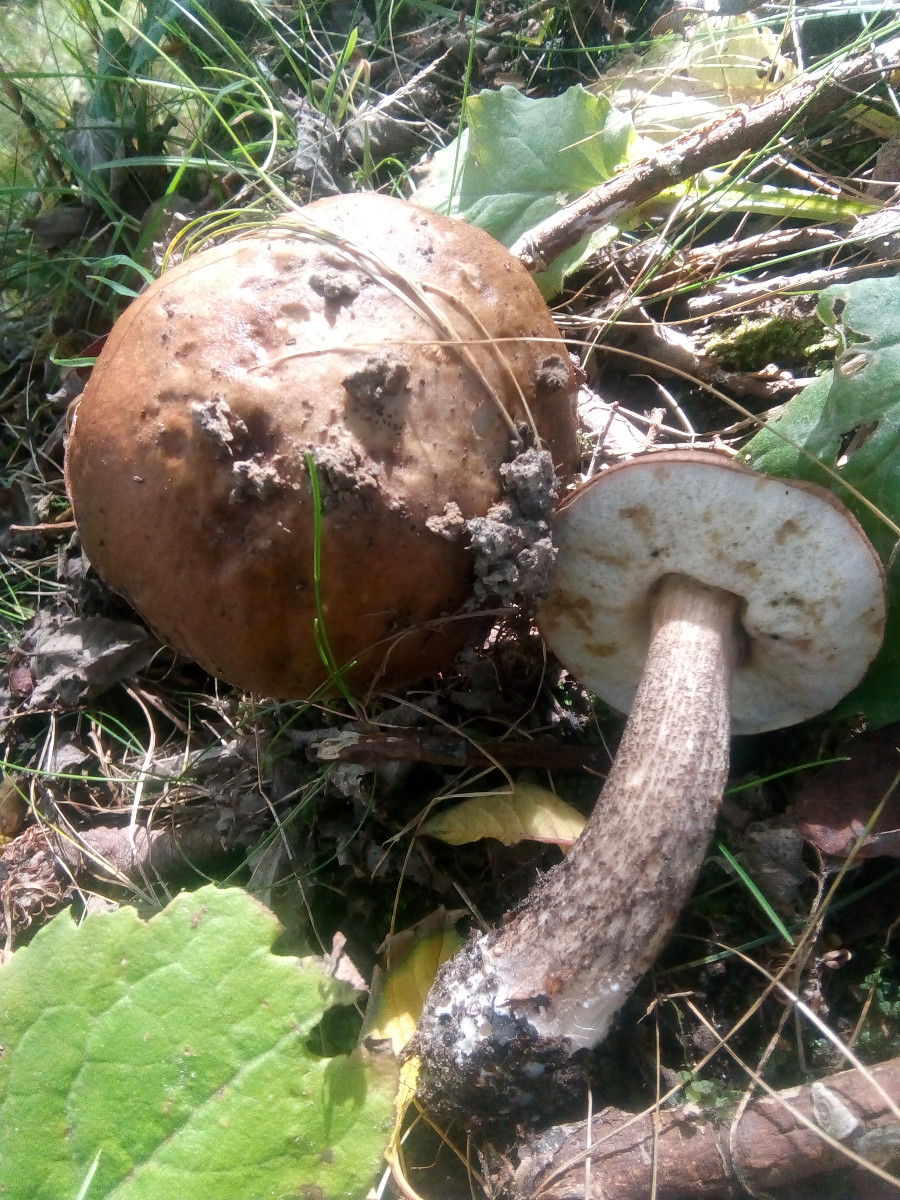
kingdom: Fungi
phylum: Basidiomycota
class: Agaricomycetes
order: Boletales
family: Boletaceae
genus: Leccinum
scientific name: Leccinum scabrum
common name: brun skælrørhat
